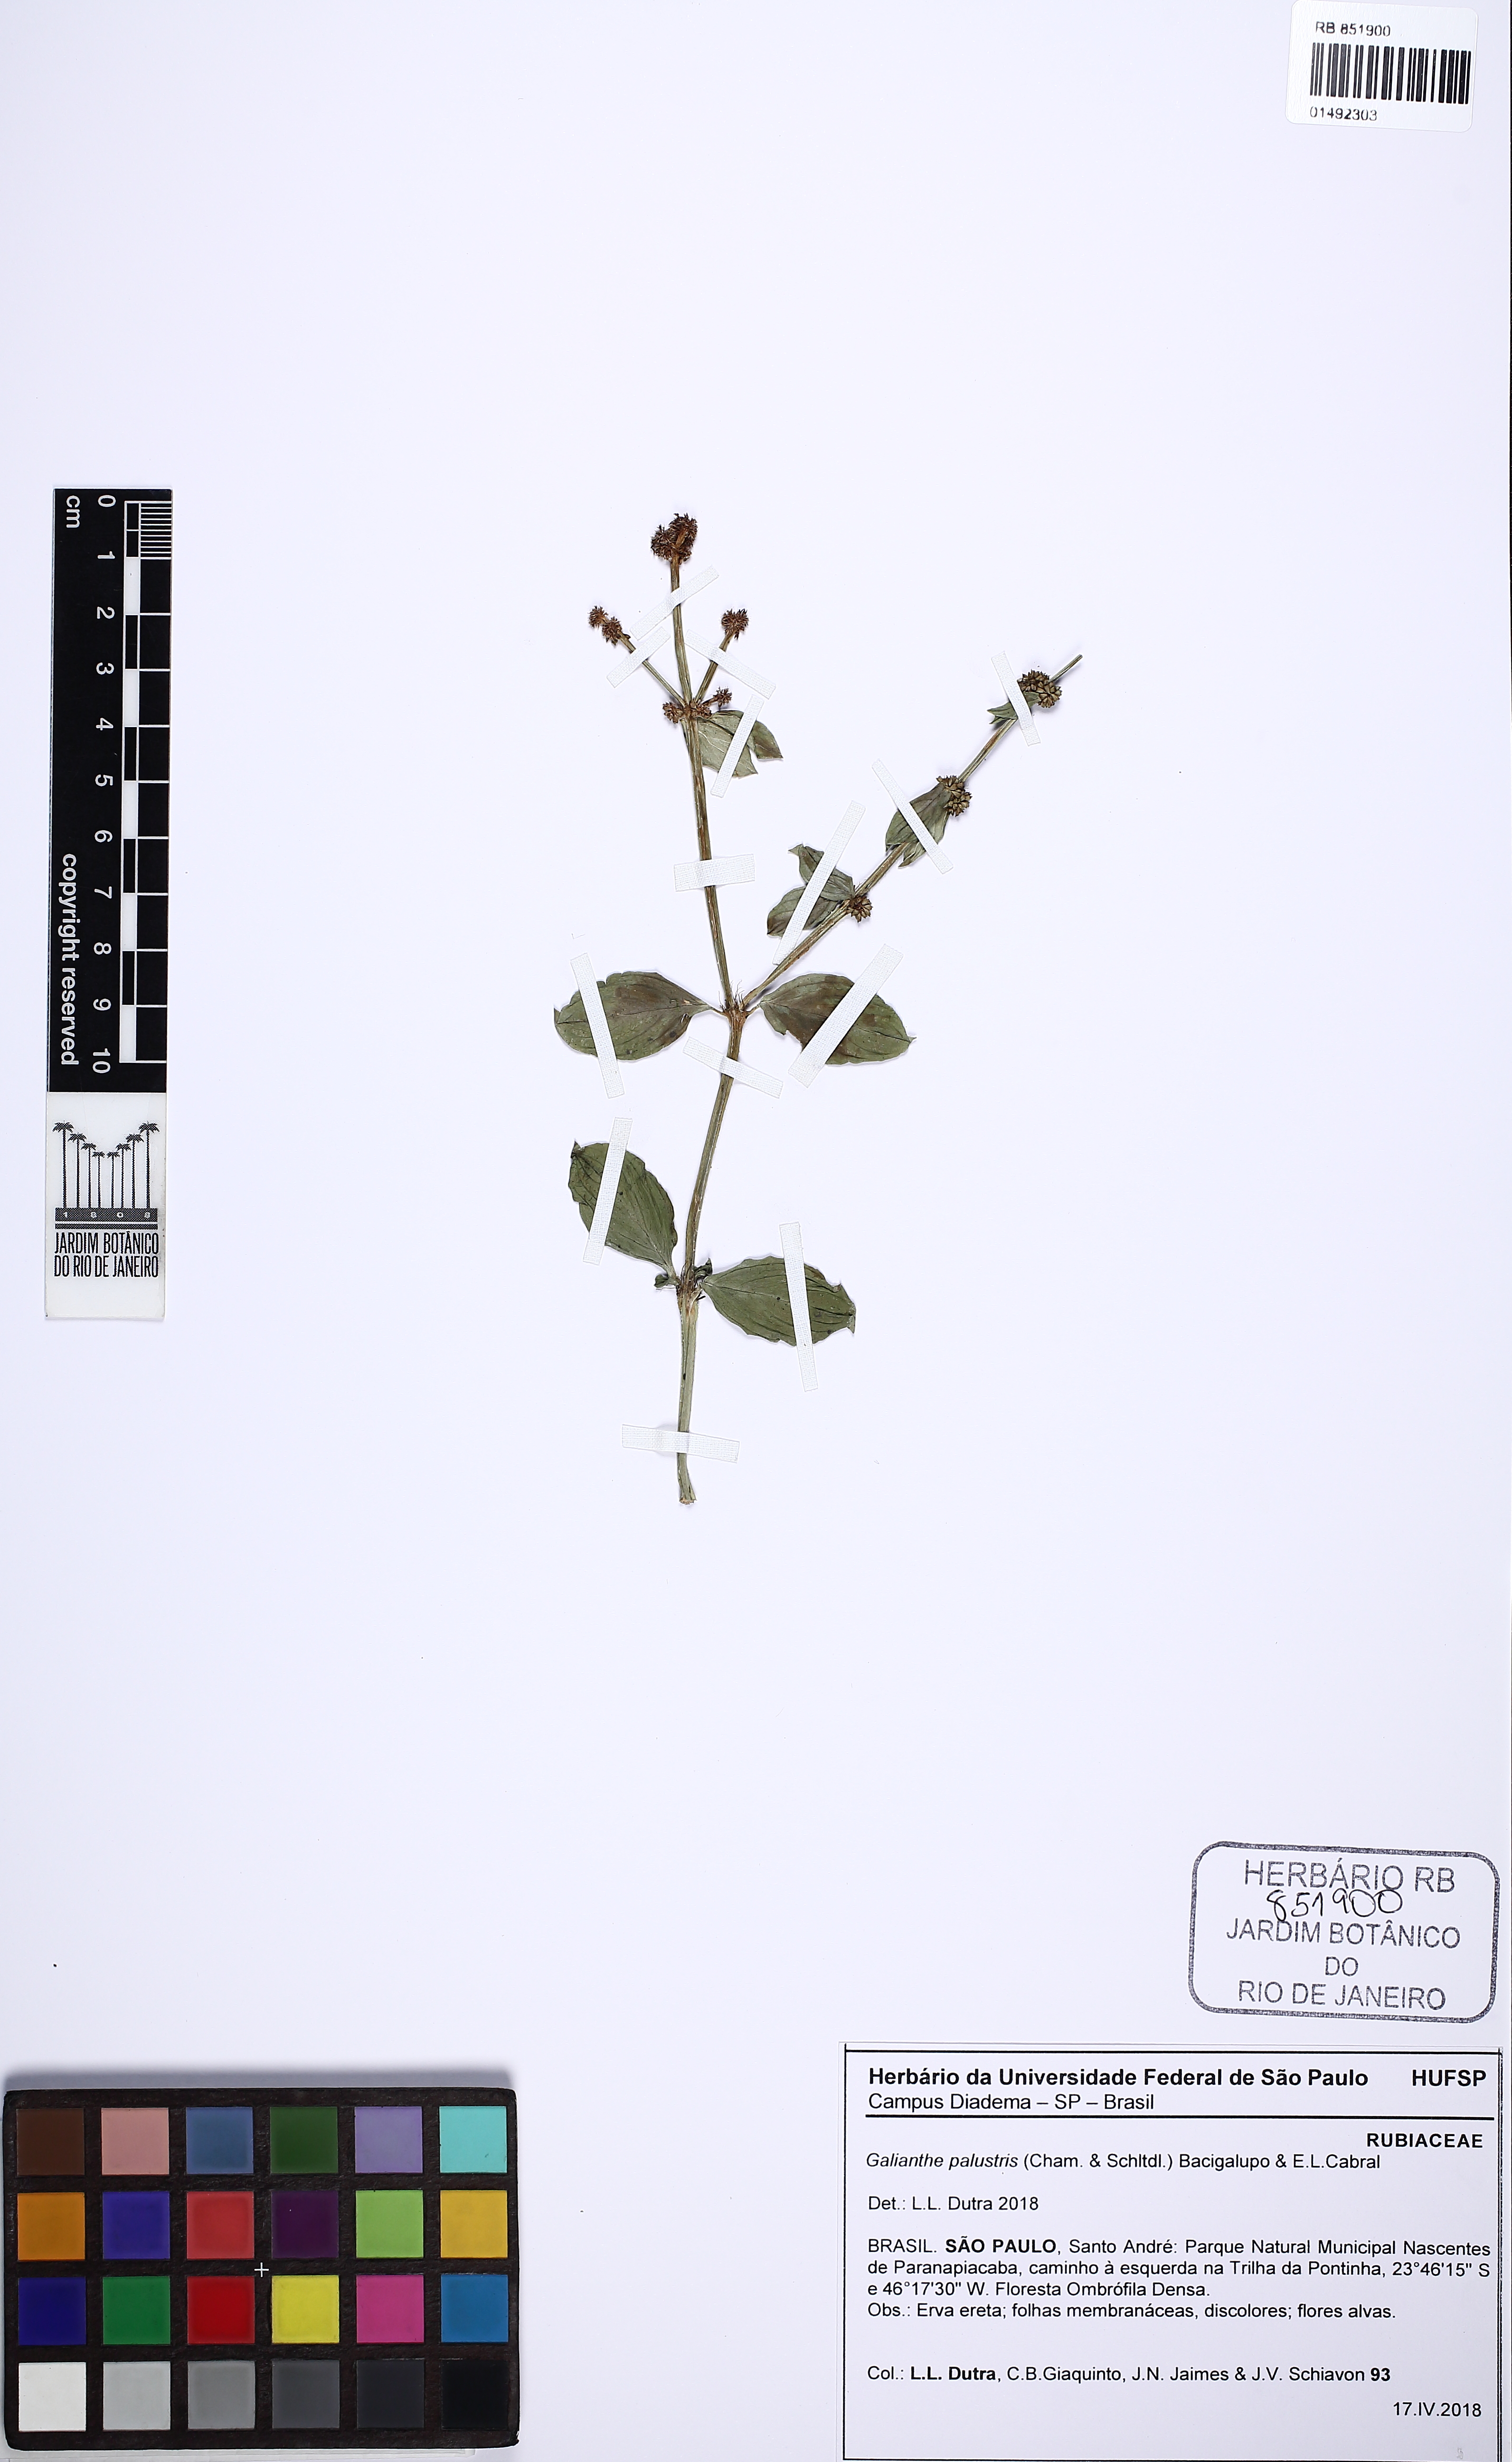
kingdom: Plantae
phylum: Tracheophyta
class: Magnoliopsida
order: Gentianales
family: Rubiaceae
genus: Galianthe
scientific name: Galianthe palustris
